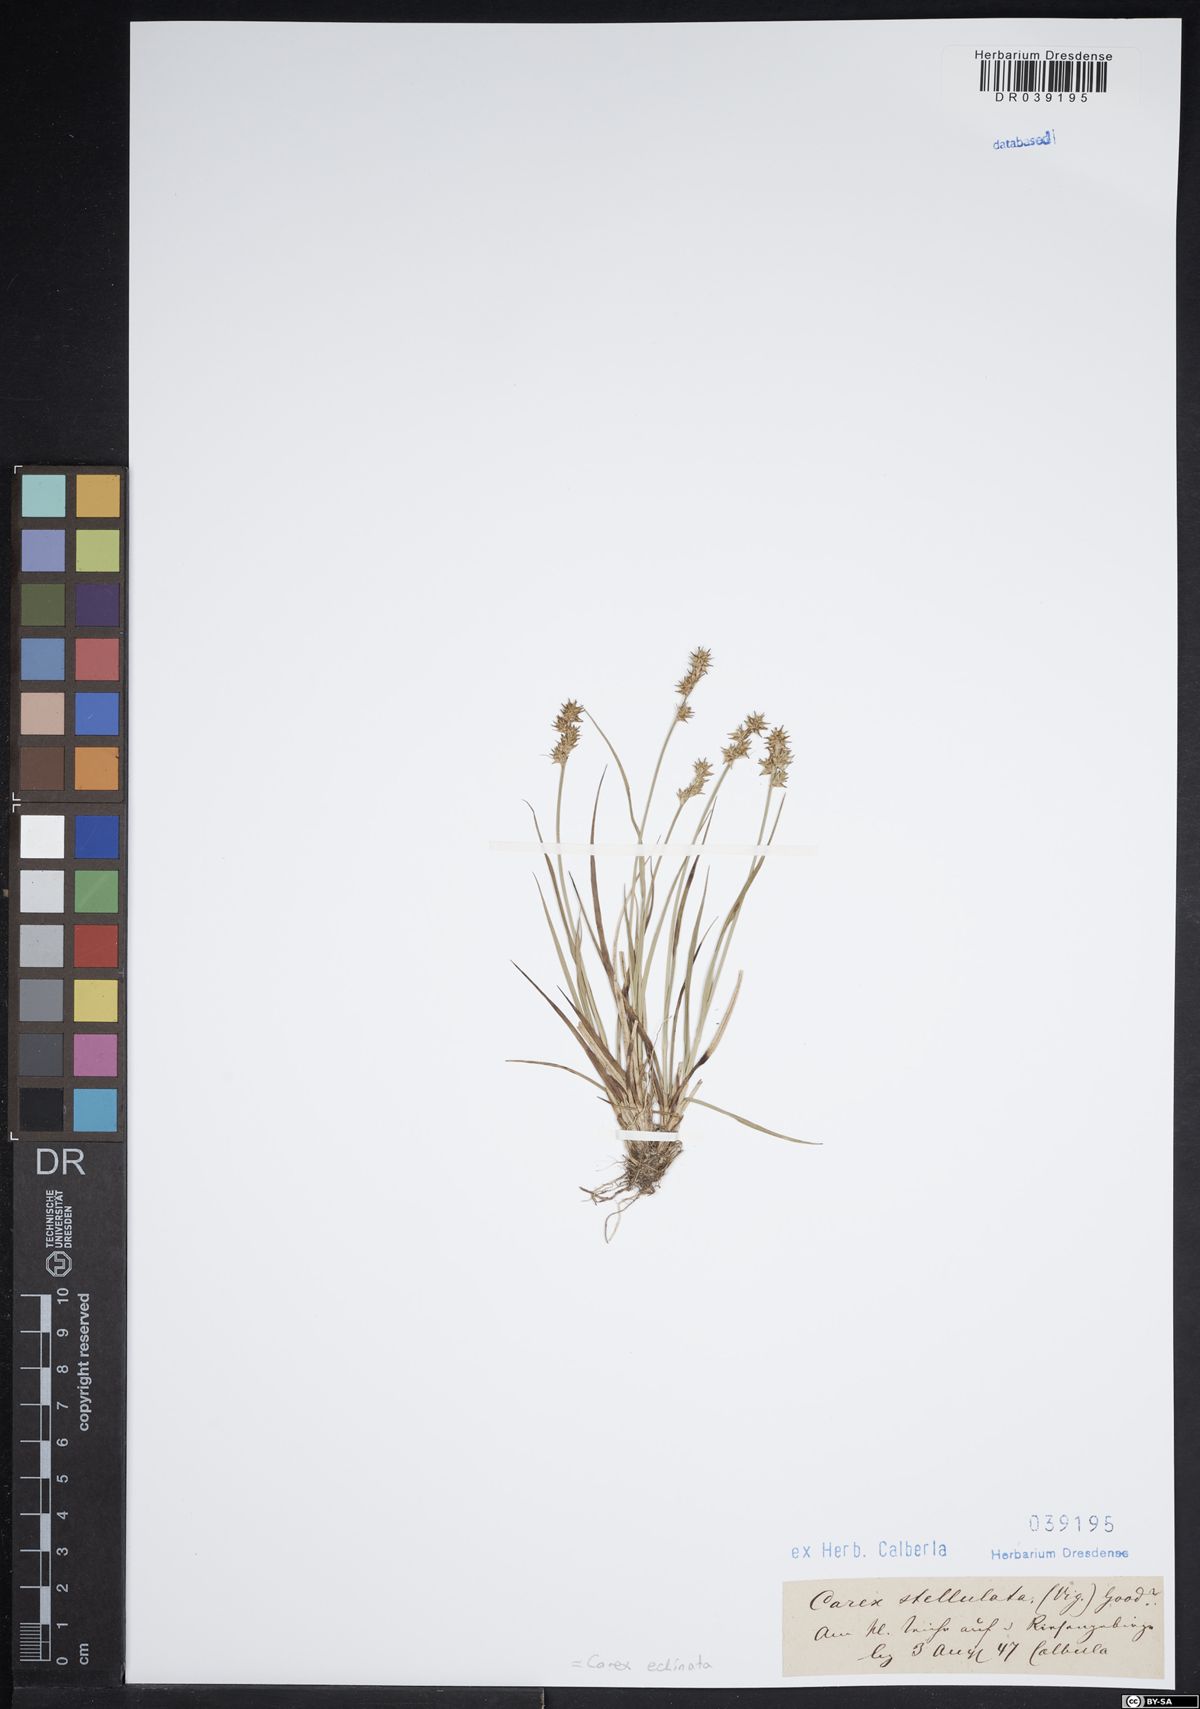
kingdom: Plantae
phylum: Tracheophyta
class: Liliopsida
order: Poales
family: Cyperaceae
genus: Carex
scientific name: Carex echinata
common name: Star sedge
